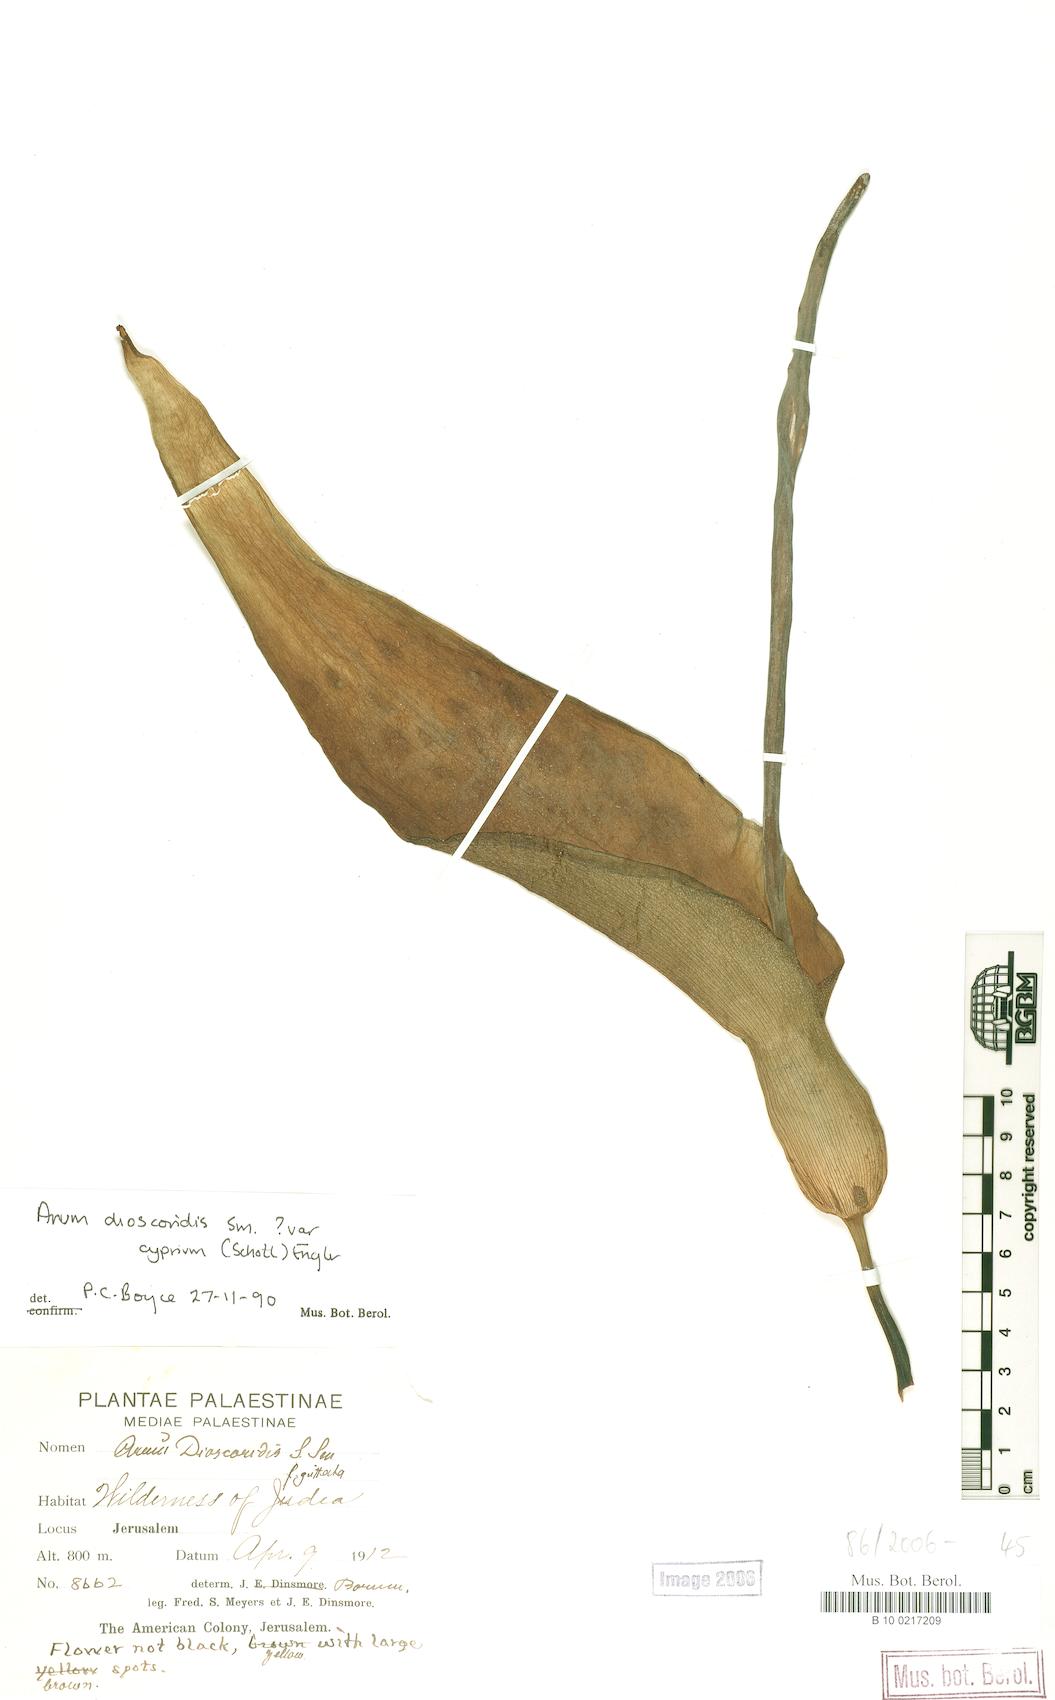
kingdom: Plantae
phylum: Tracheophyta
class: Liliopsida
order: Alismatales
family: Araceae
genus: Arum
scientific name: Arum dioscoridis
